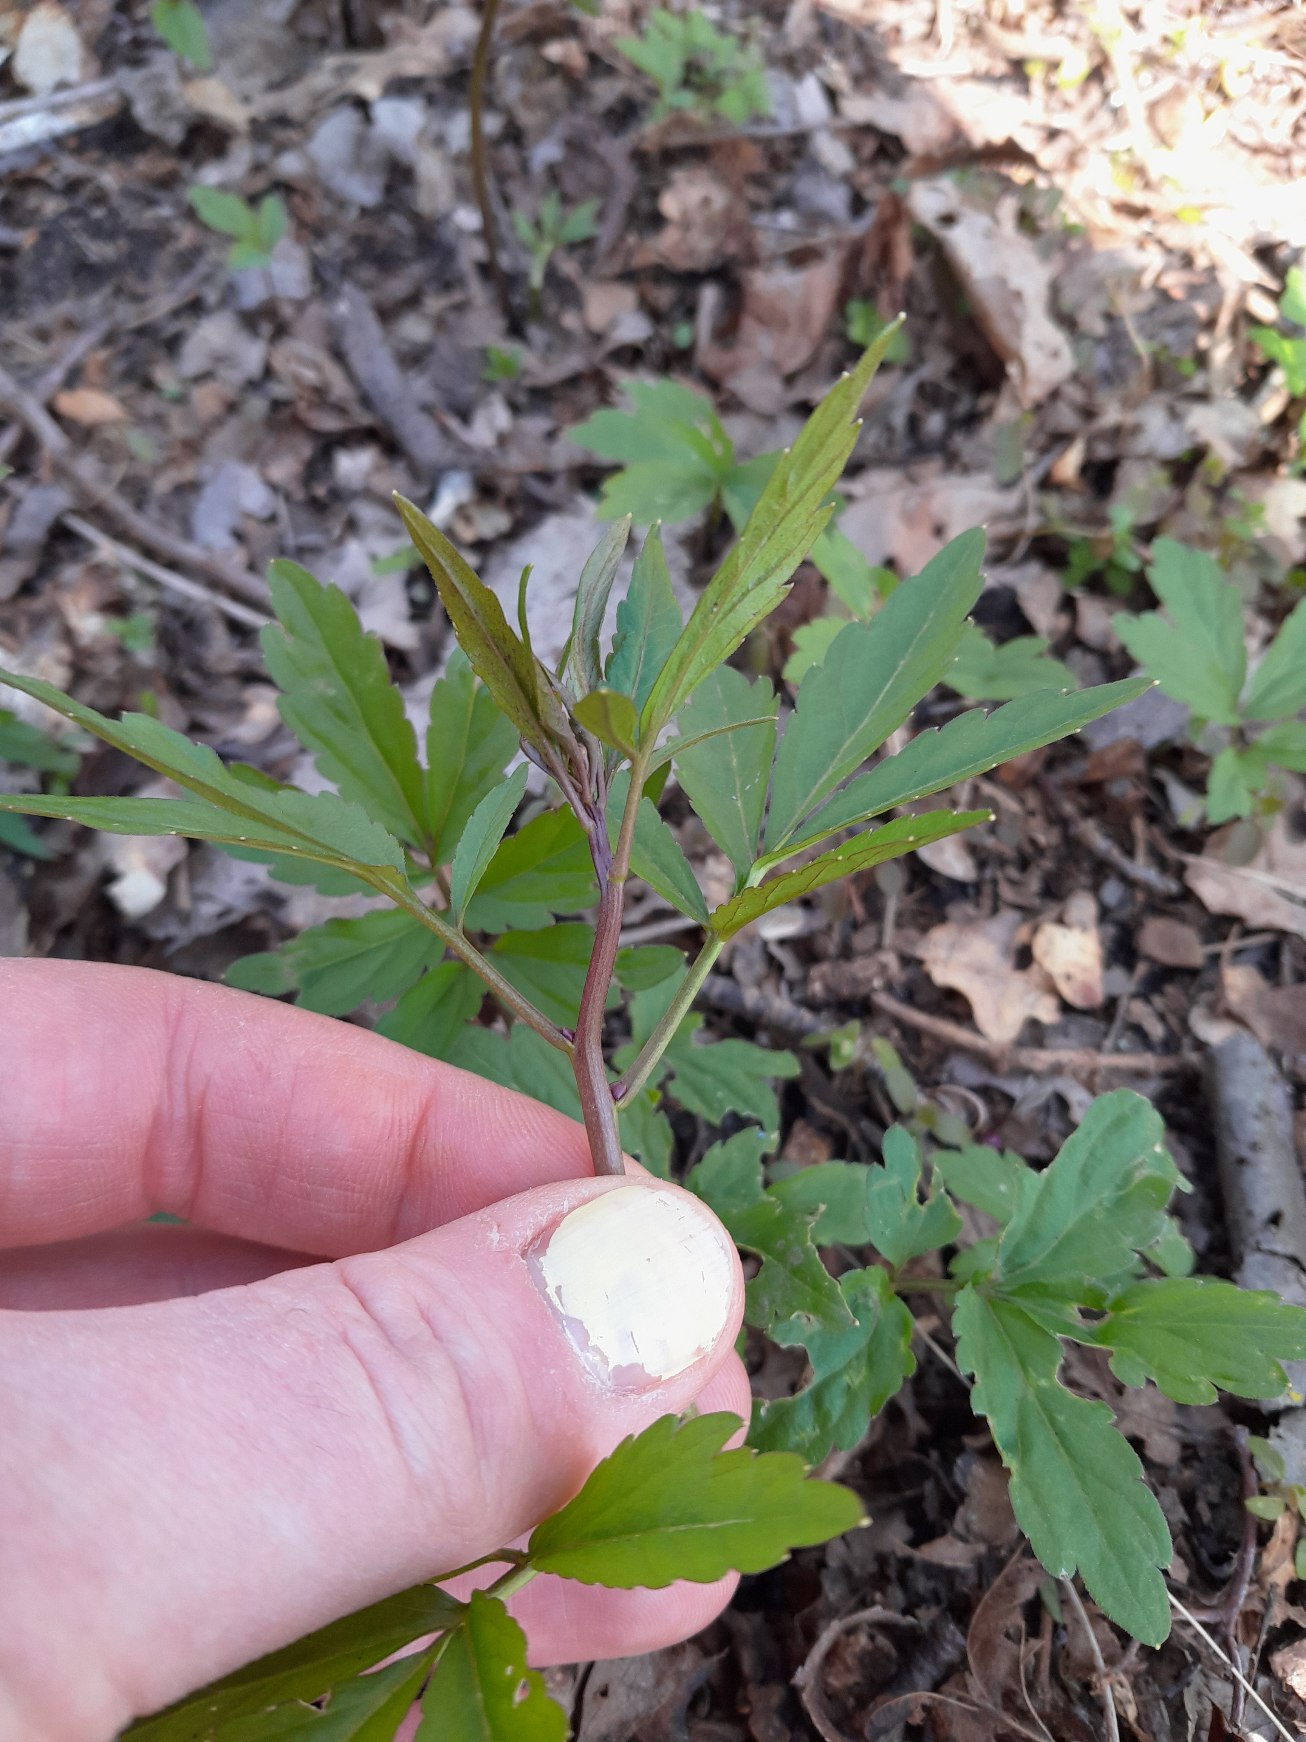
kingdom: Plantae
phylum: Tracheophyta
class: Magnoliopsida
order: Brassicales
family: Brassicaceae
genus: Cardamine
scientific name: Cardamine bulbifera
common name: Tandrod
